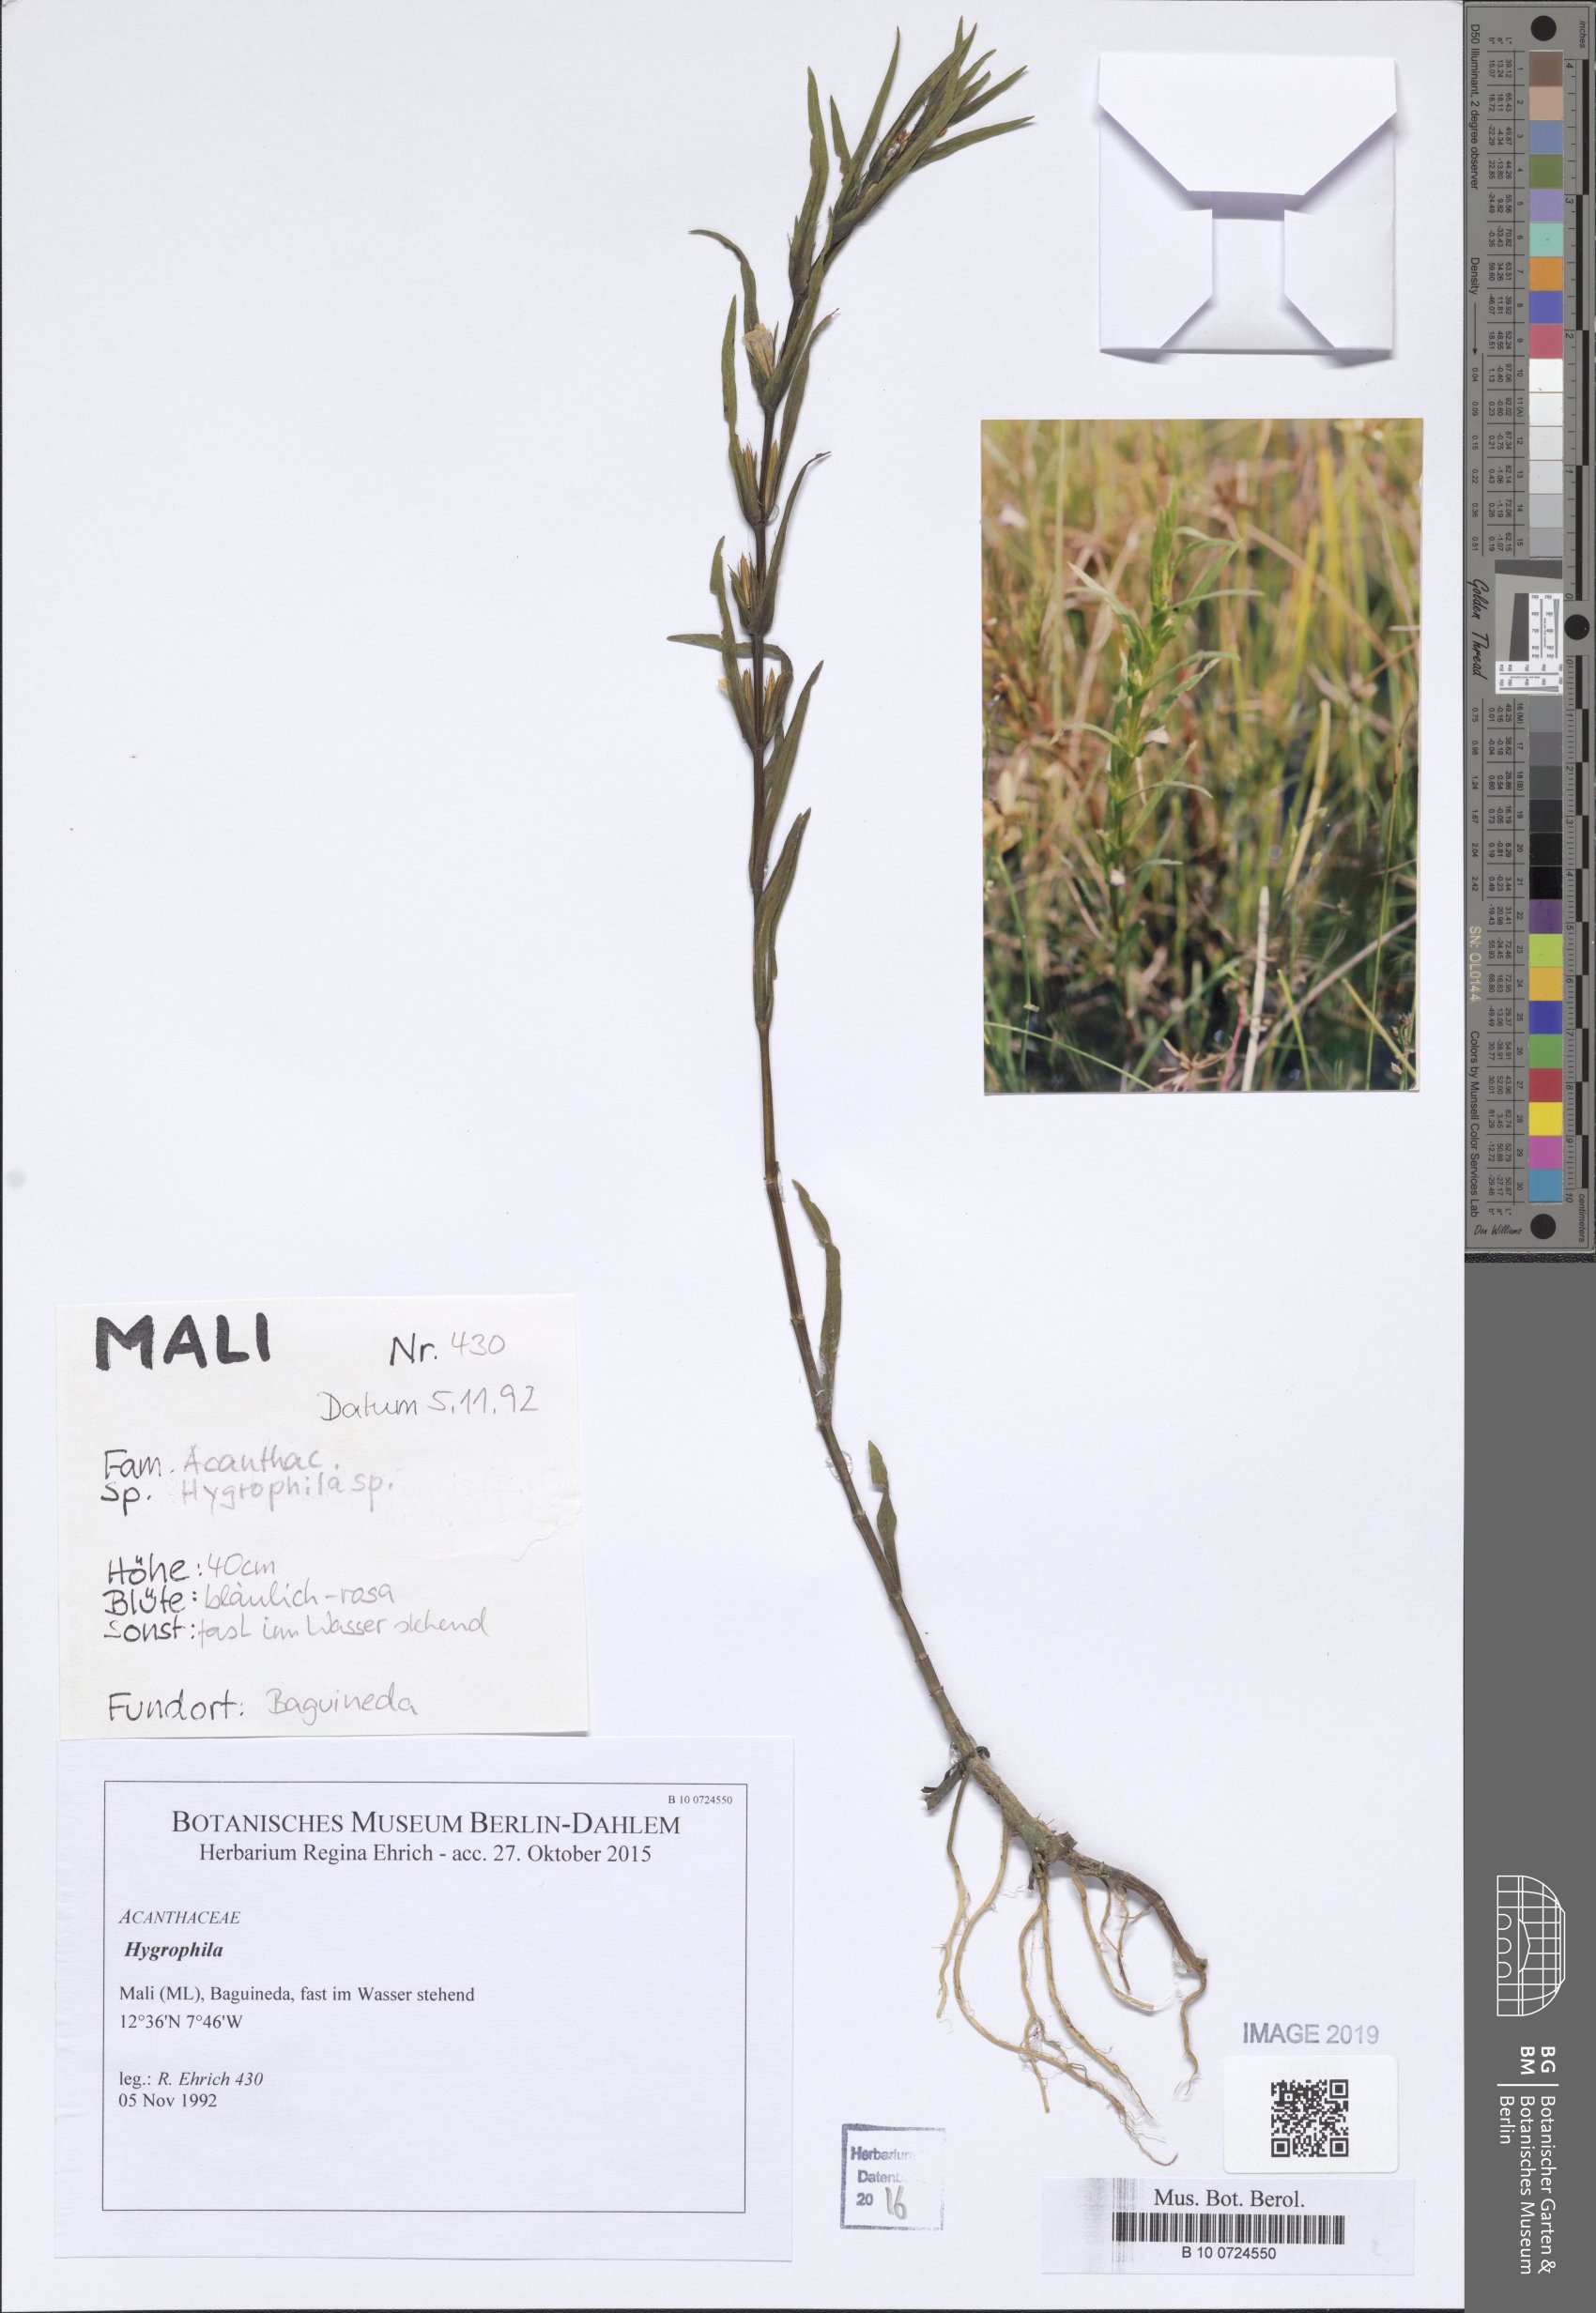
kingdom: Plantae
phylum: Tracheophyta
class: Magnoliopsida
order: Lamiales
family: Acanthaceae
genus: Hygrophila
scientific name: Hygrophila
